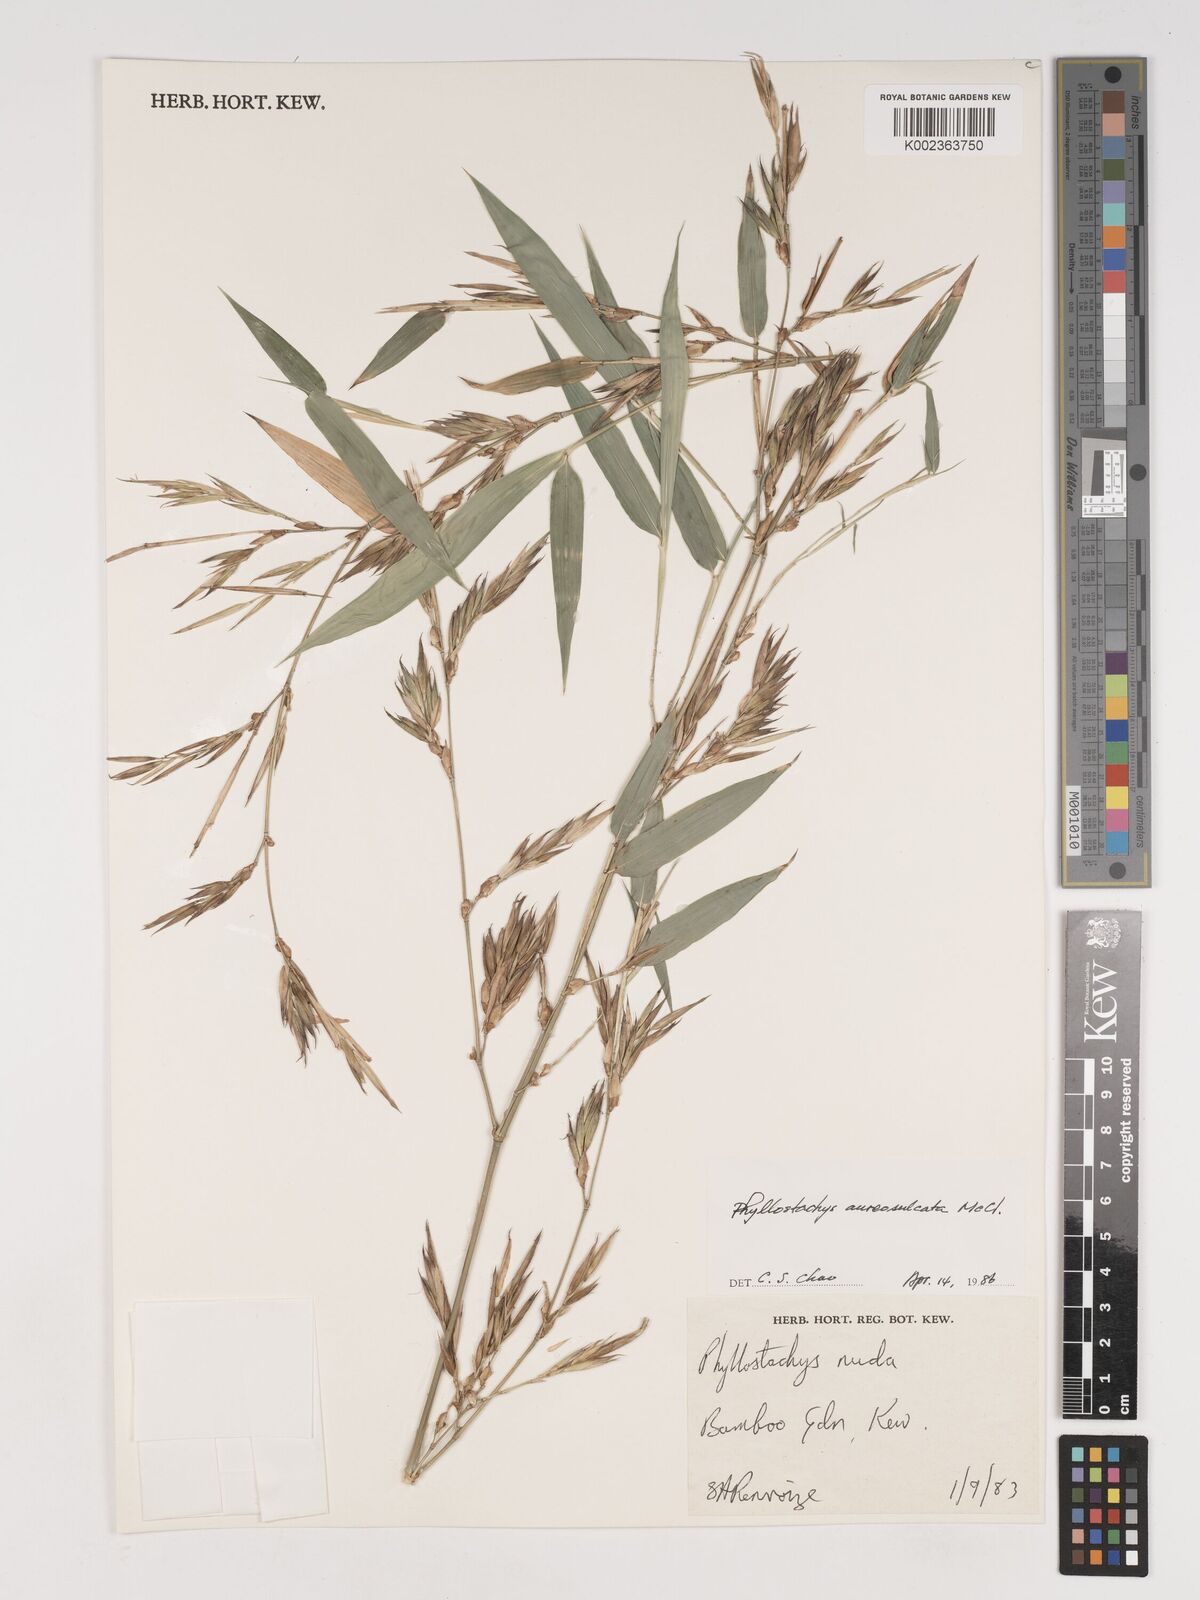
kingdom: Plantae
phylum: Tracheophyta
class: Liliopsida
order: Poales
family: Poaceae
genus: Phyllostachys
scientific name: Phyllostachys aureosulcata
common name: Yellow groove bamboo
